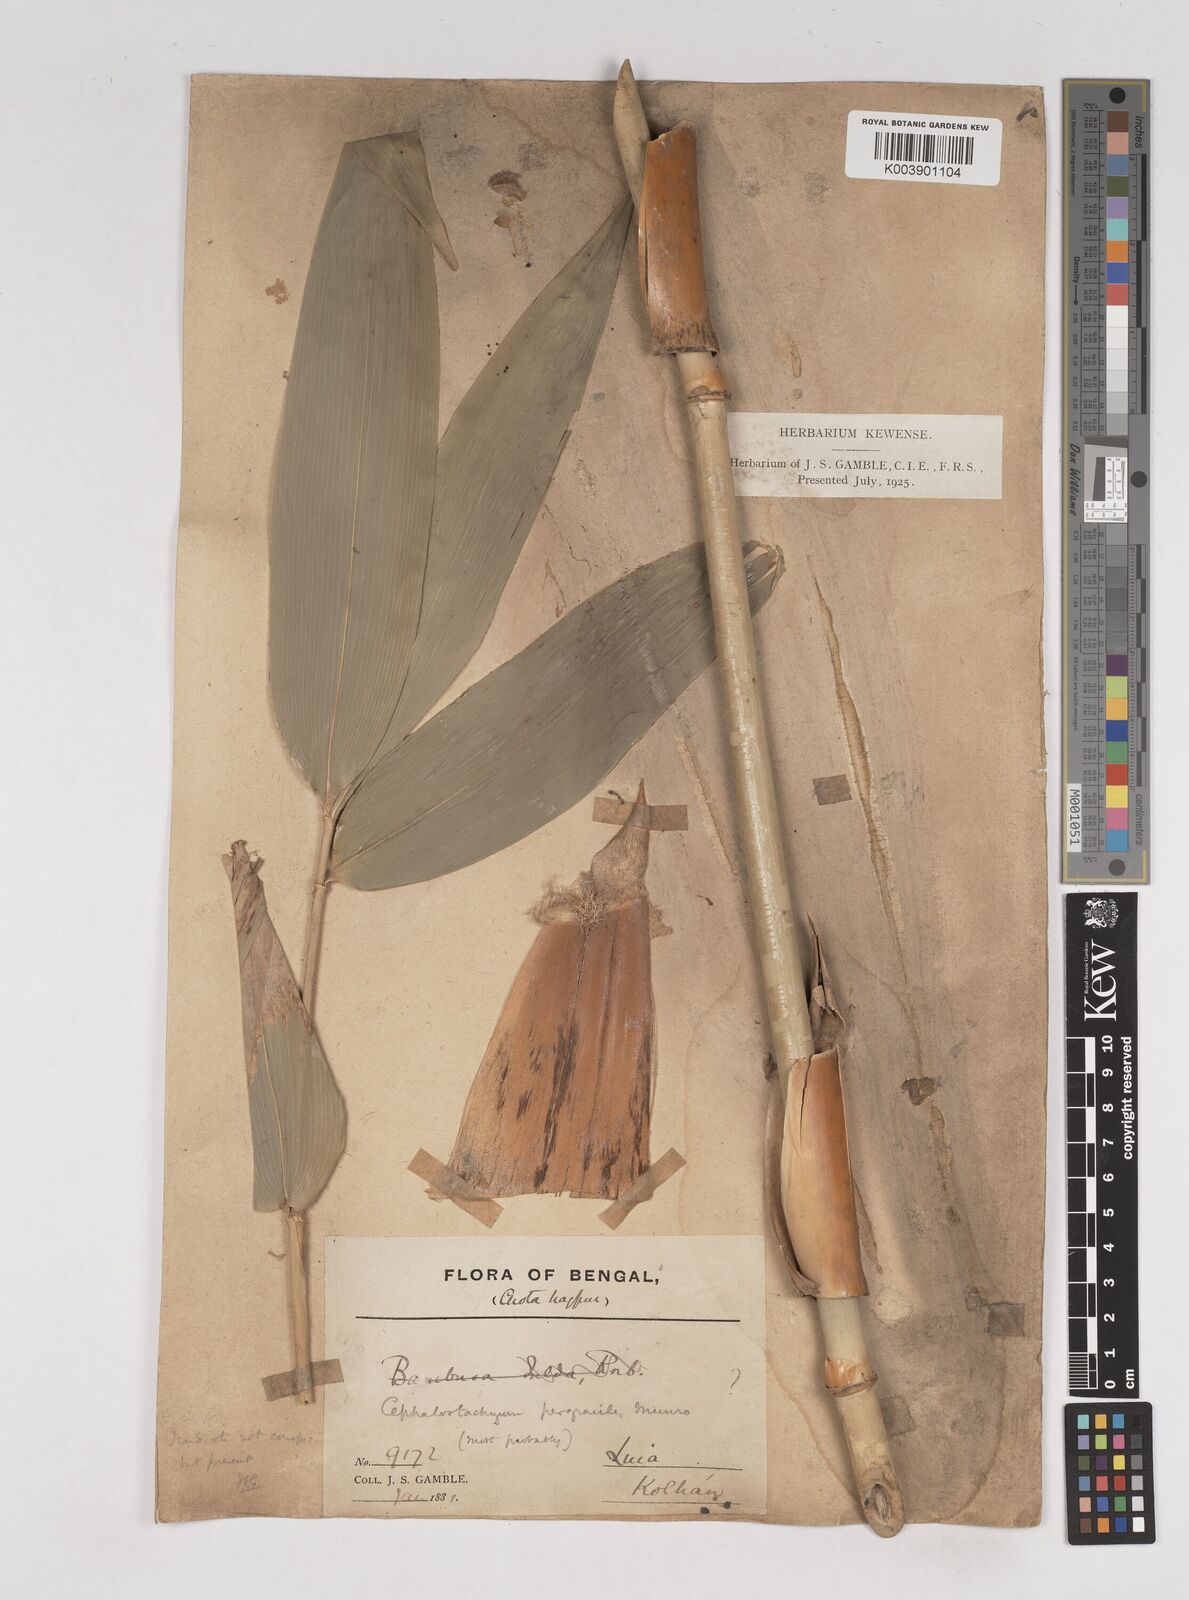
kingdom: Plantae
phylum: Tracheophyta
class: Liliopsida
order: Poales
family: Poaceae
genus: Schizostachyum
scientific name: Schizostachyum pergracile
